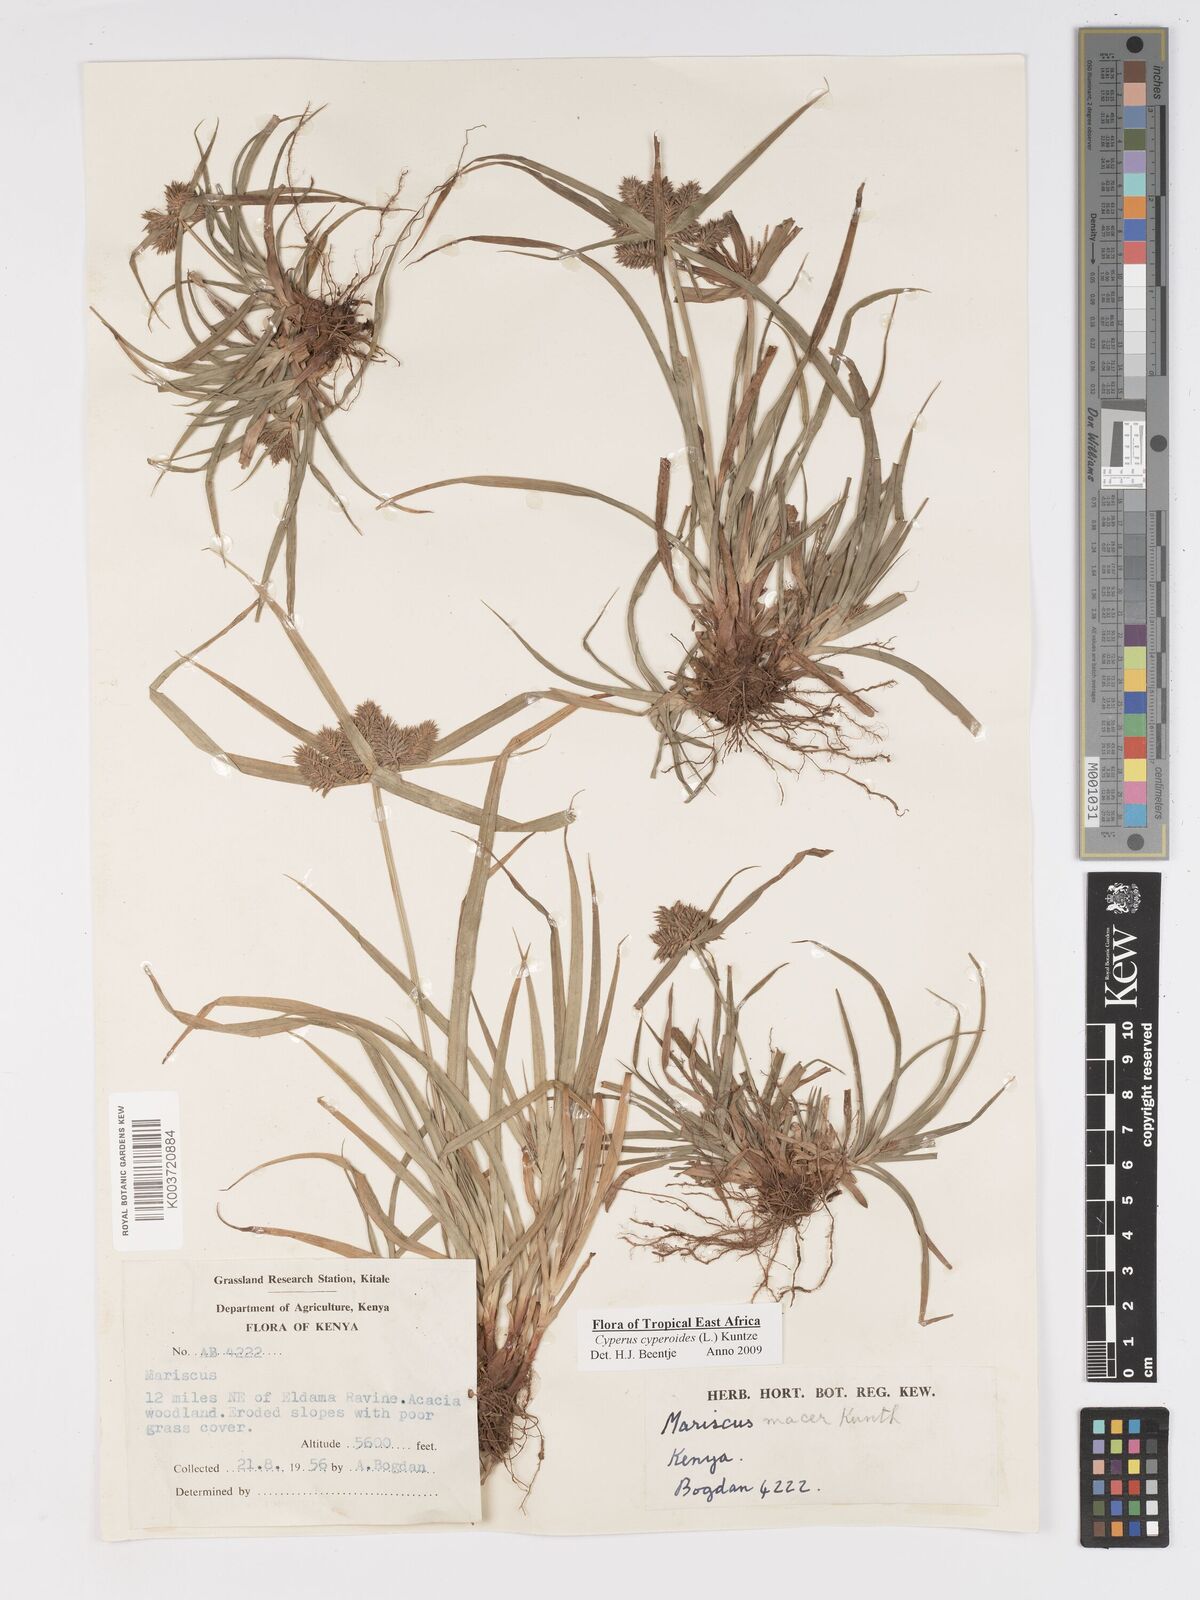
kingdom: Plantae
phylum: Tracheophyta
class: Liliopsida
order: Poales
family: Cyperaceae
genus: Cyperus
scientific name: Cyperus macrocarpus
